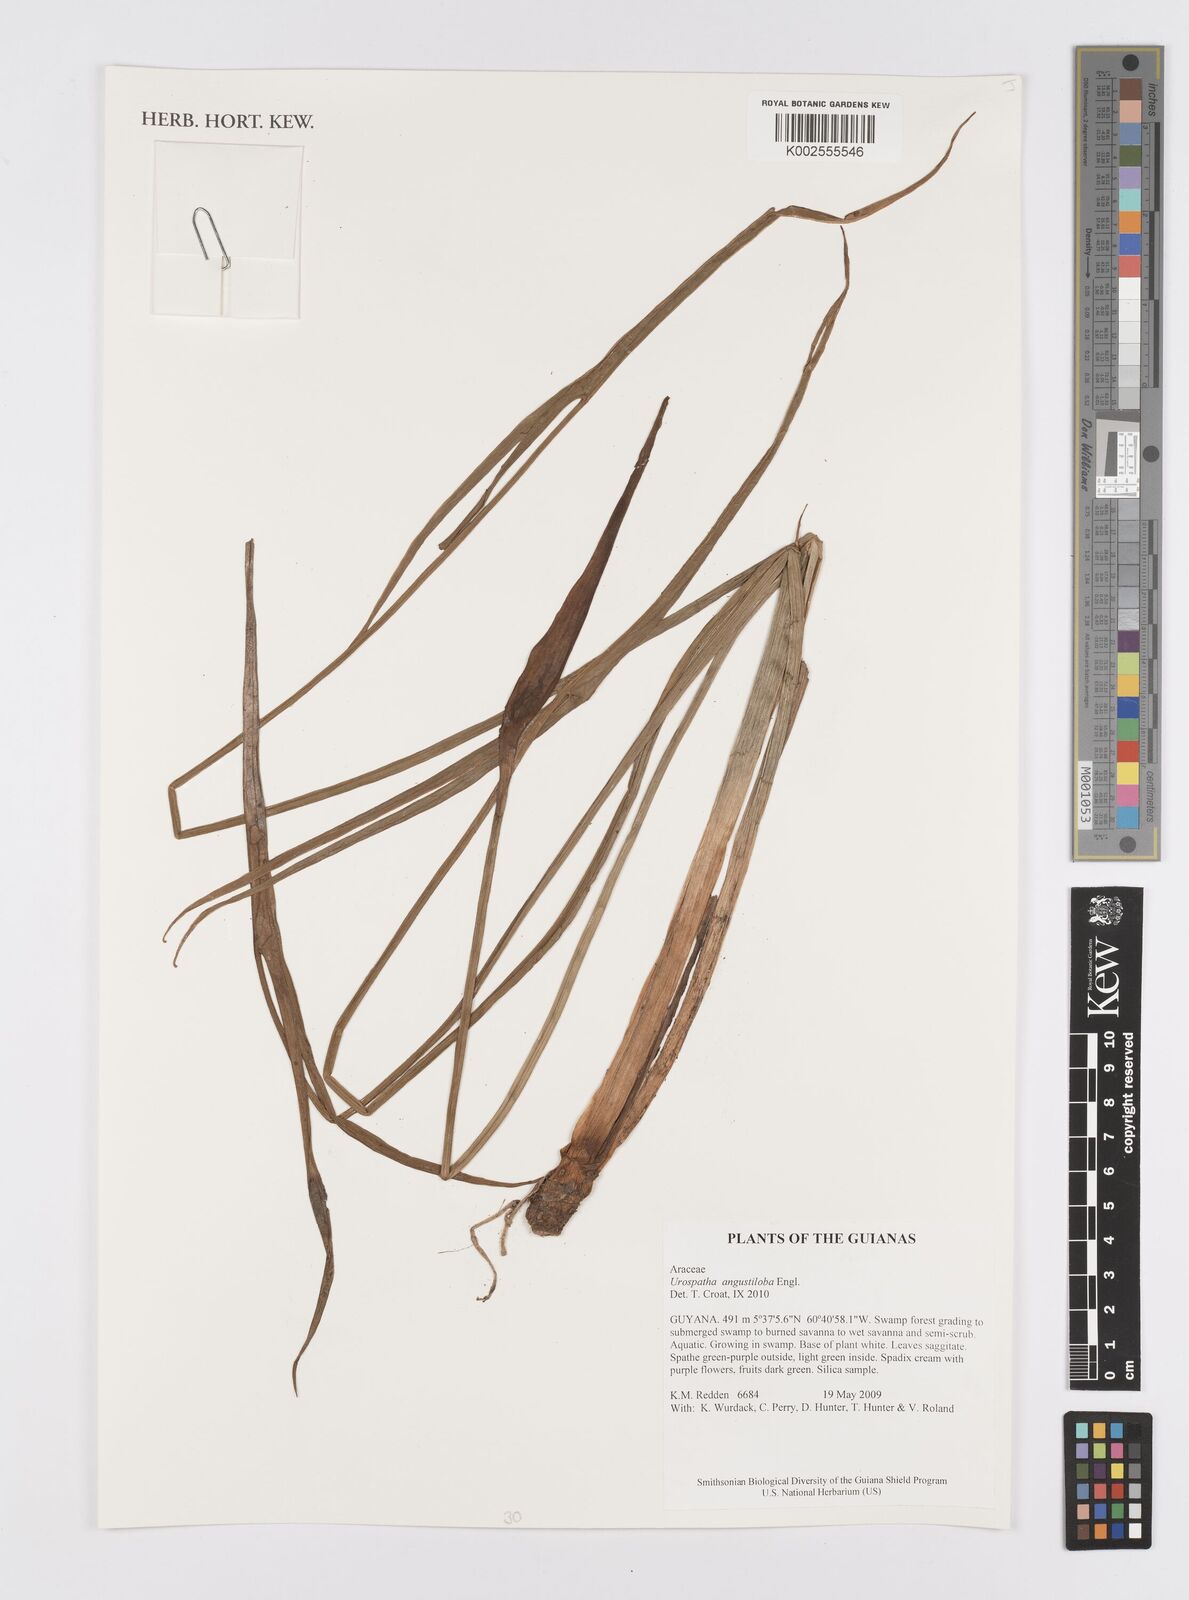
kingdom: Plantae
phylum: Tracheophyta
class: Liliopsida
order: Alismatales
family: Araceae
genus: Urospatha
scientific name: Urospatha angustiloba
